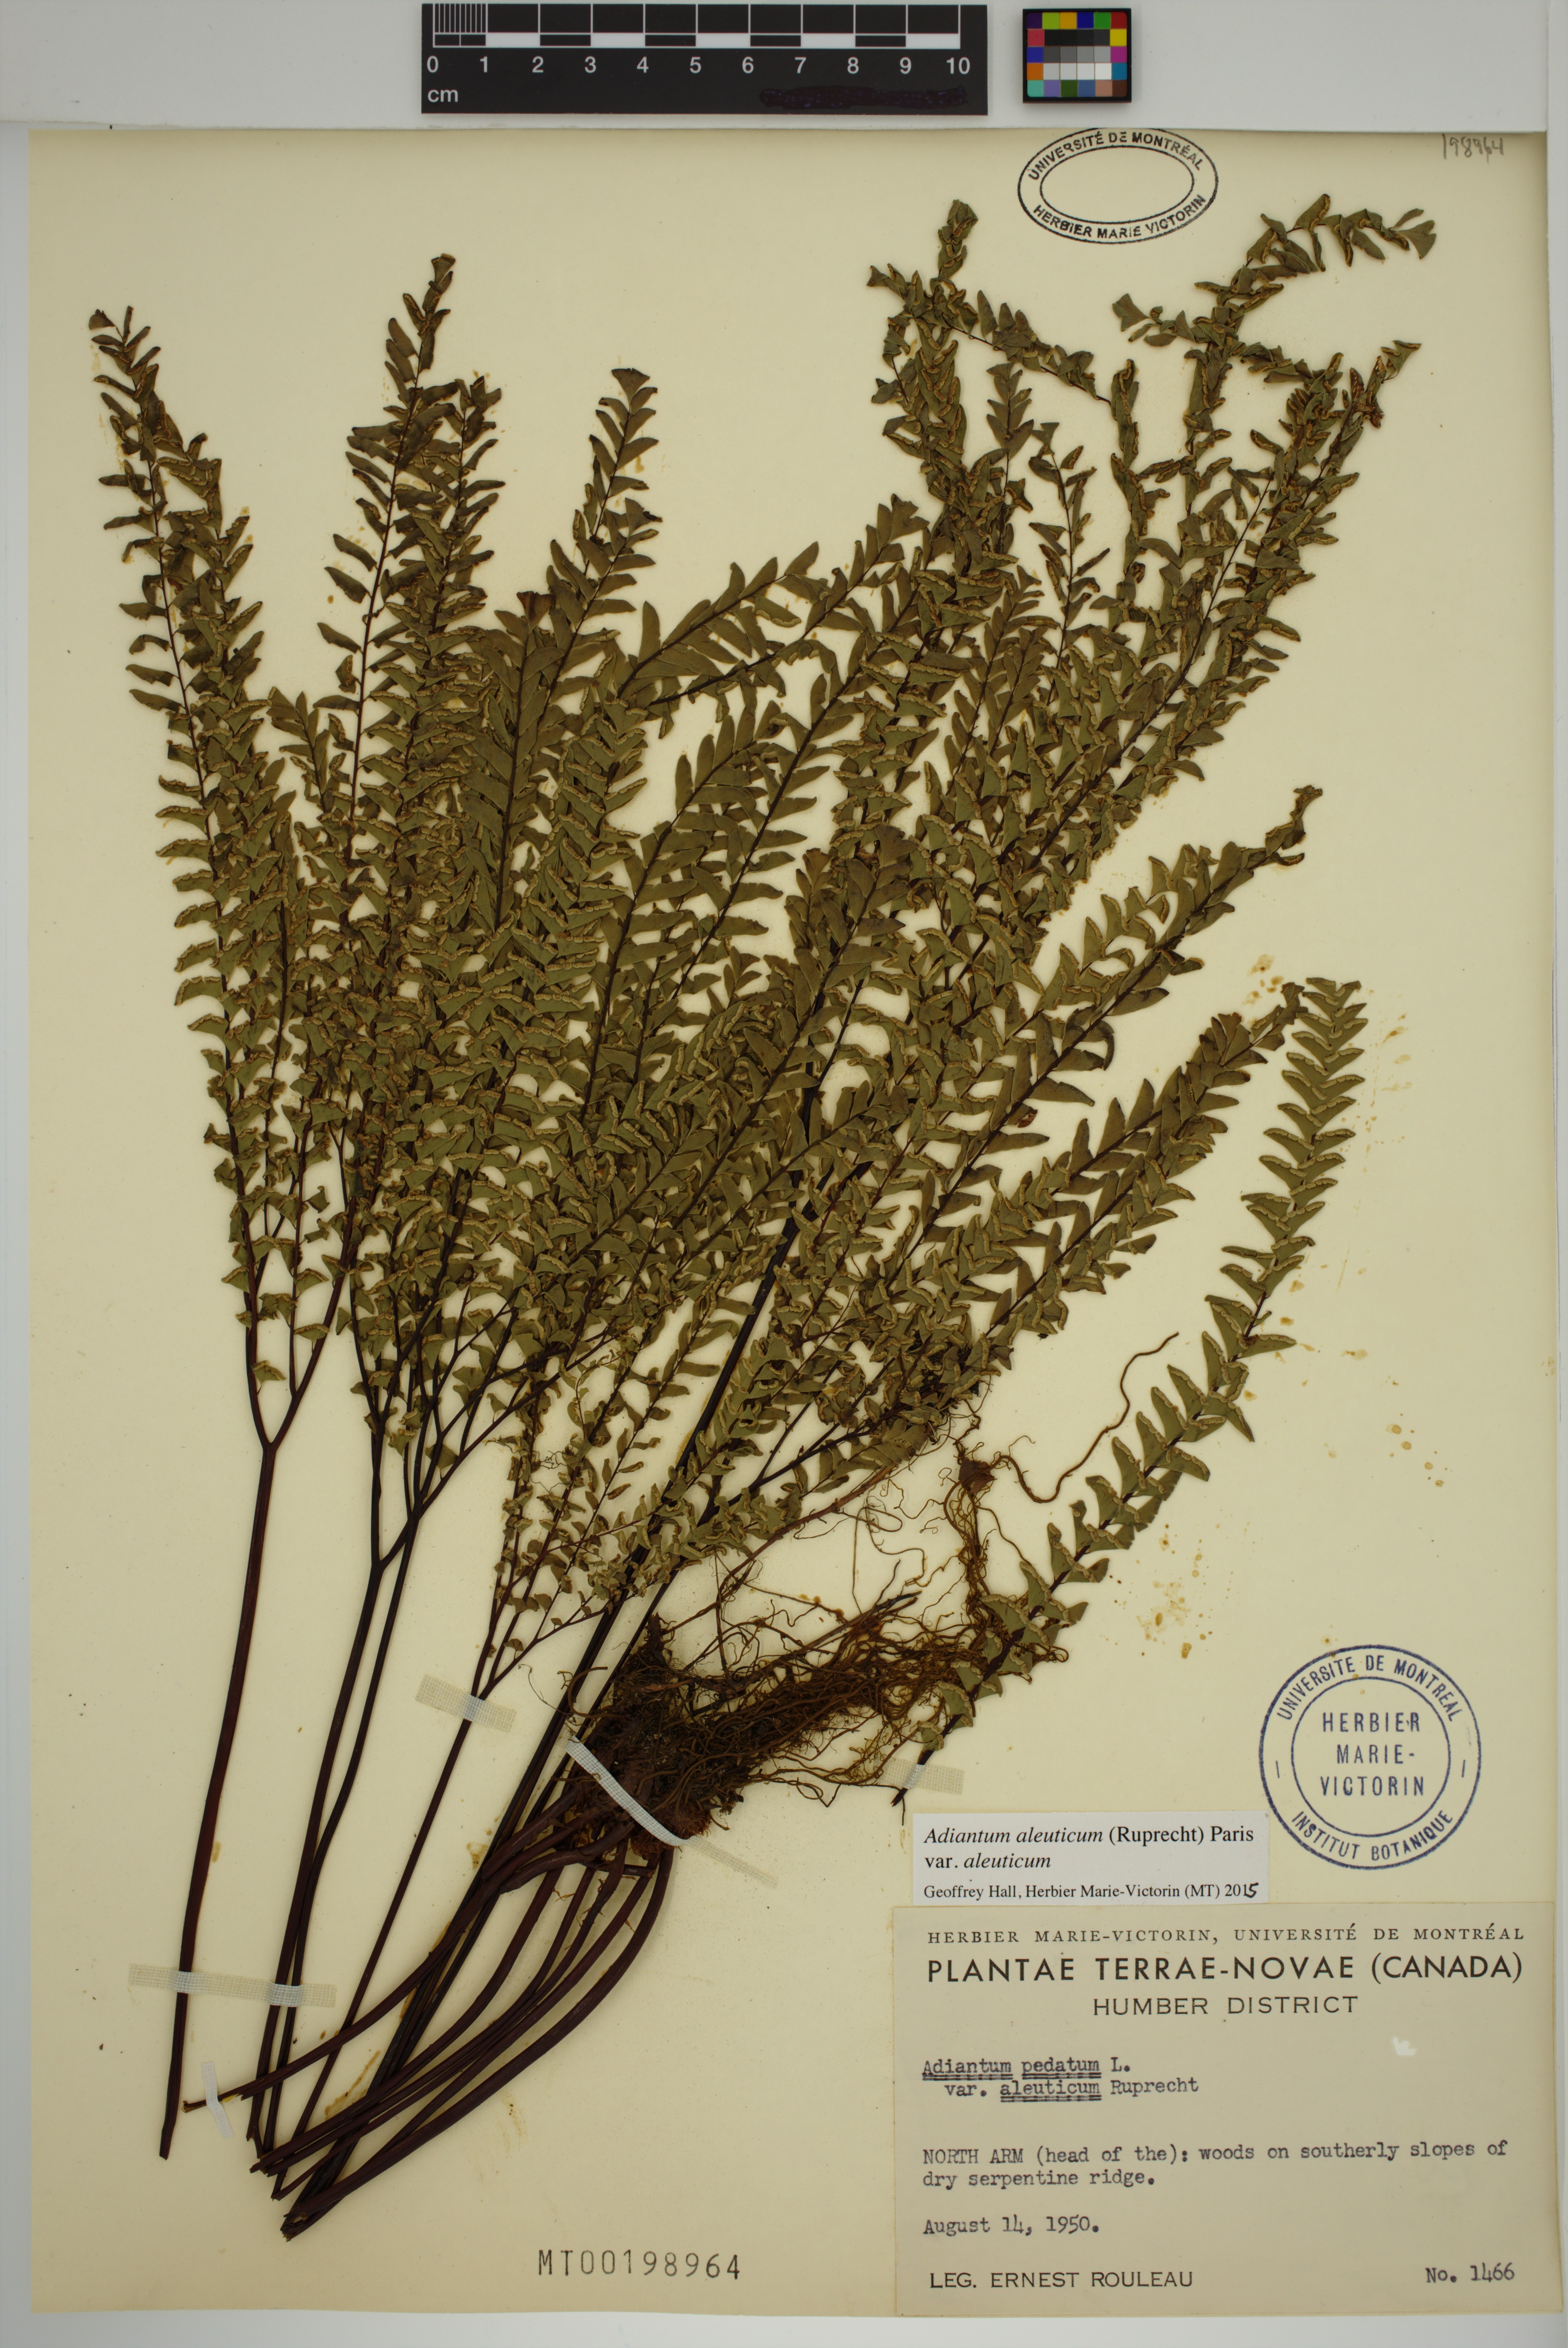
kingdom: Plantae
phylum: Tracheophyta
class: Polypodiopsida
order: Polypodiales
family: Pteridaceae
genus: Adiantum
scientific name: Adiantum aleuticum
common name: Aleutian maidenhair fern
